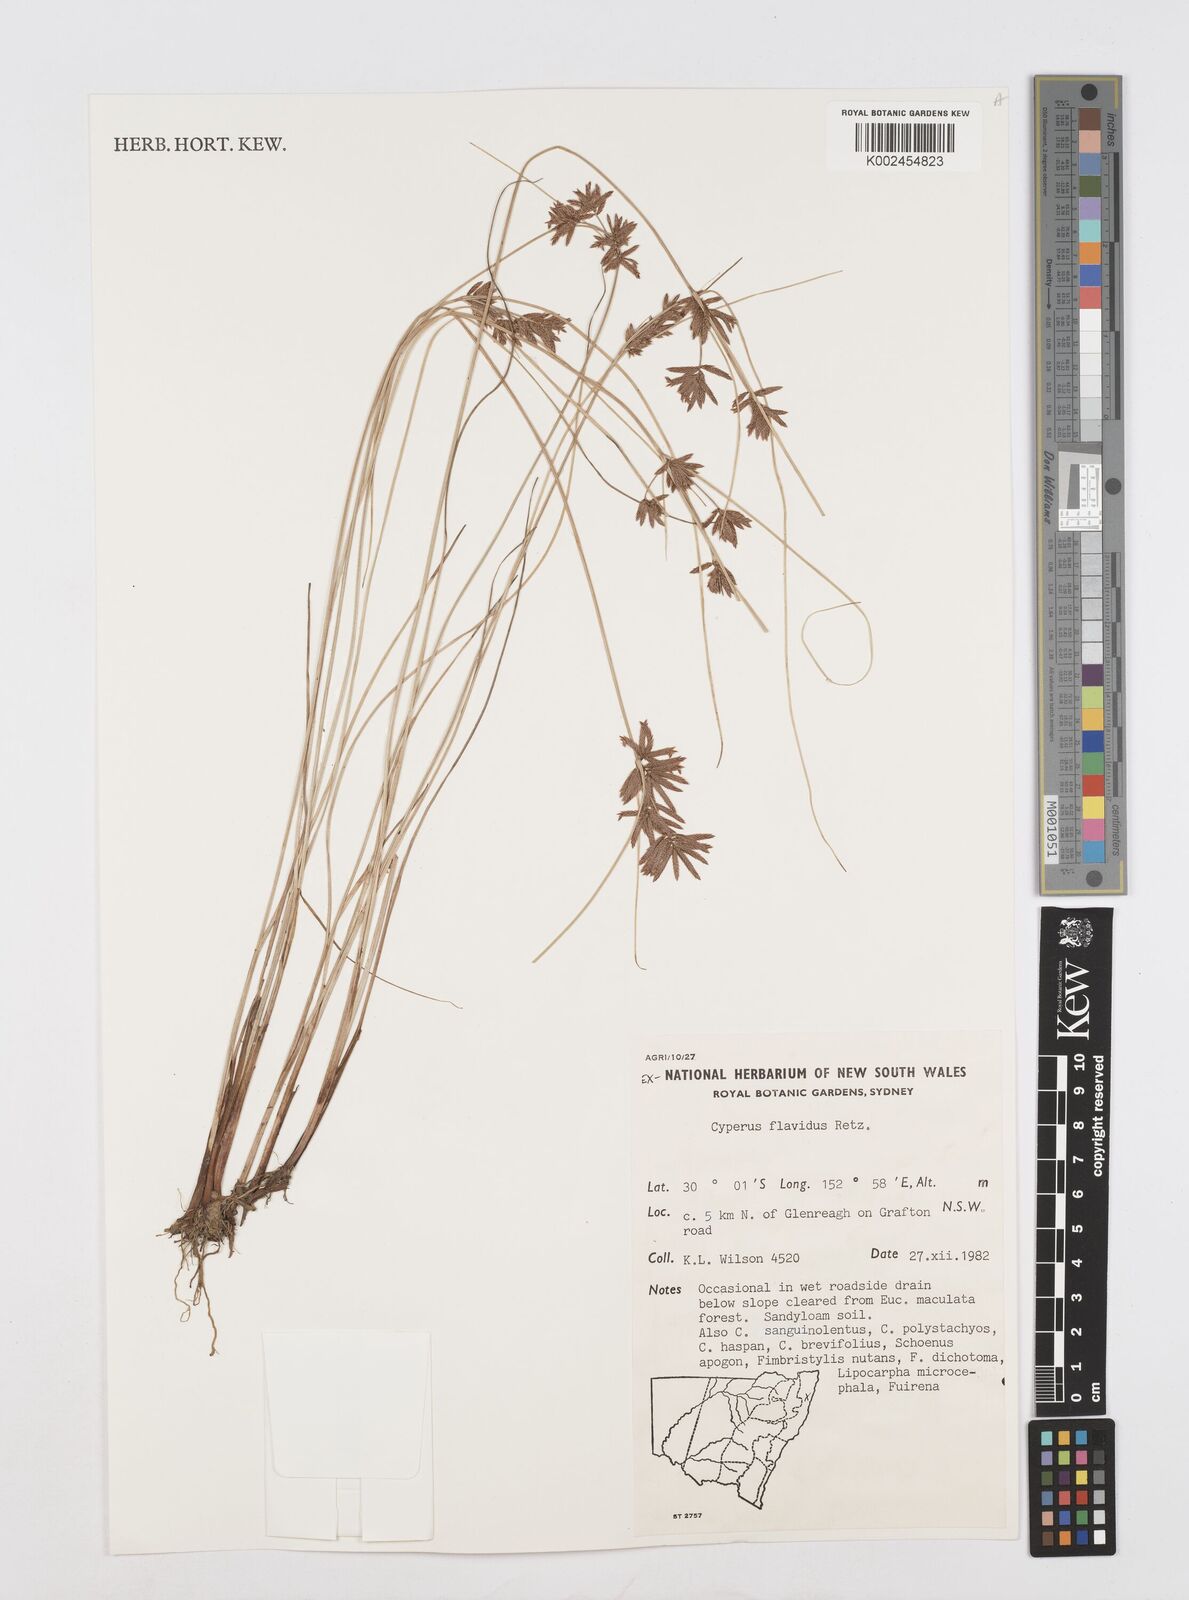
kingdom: Plantae
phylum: Tracheophyta
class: Liliopsida
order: Poales
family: Cyperaceae
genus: Cyperus
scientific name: Cyperus flavidus
